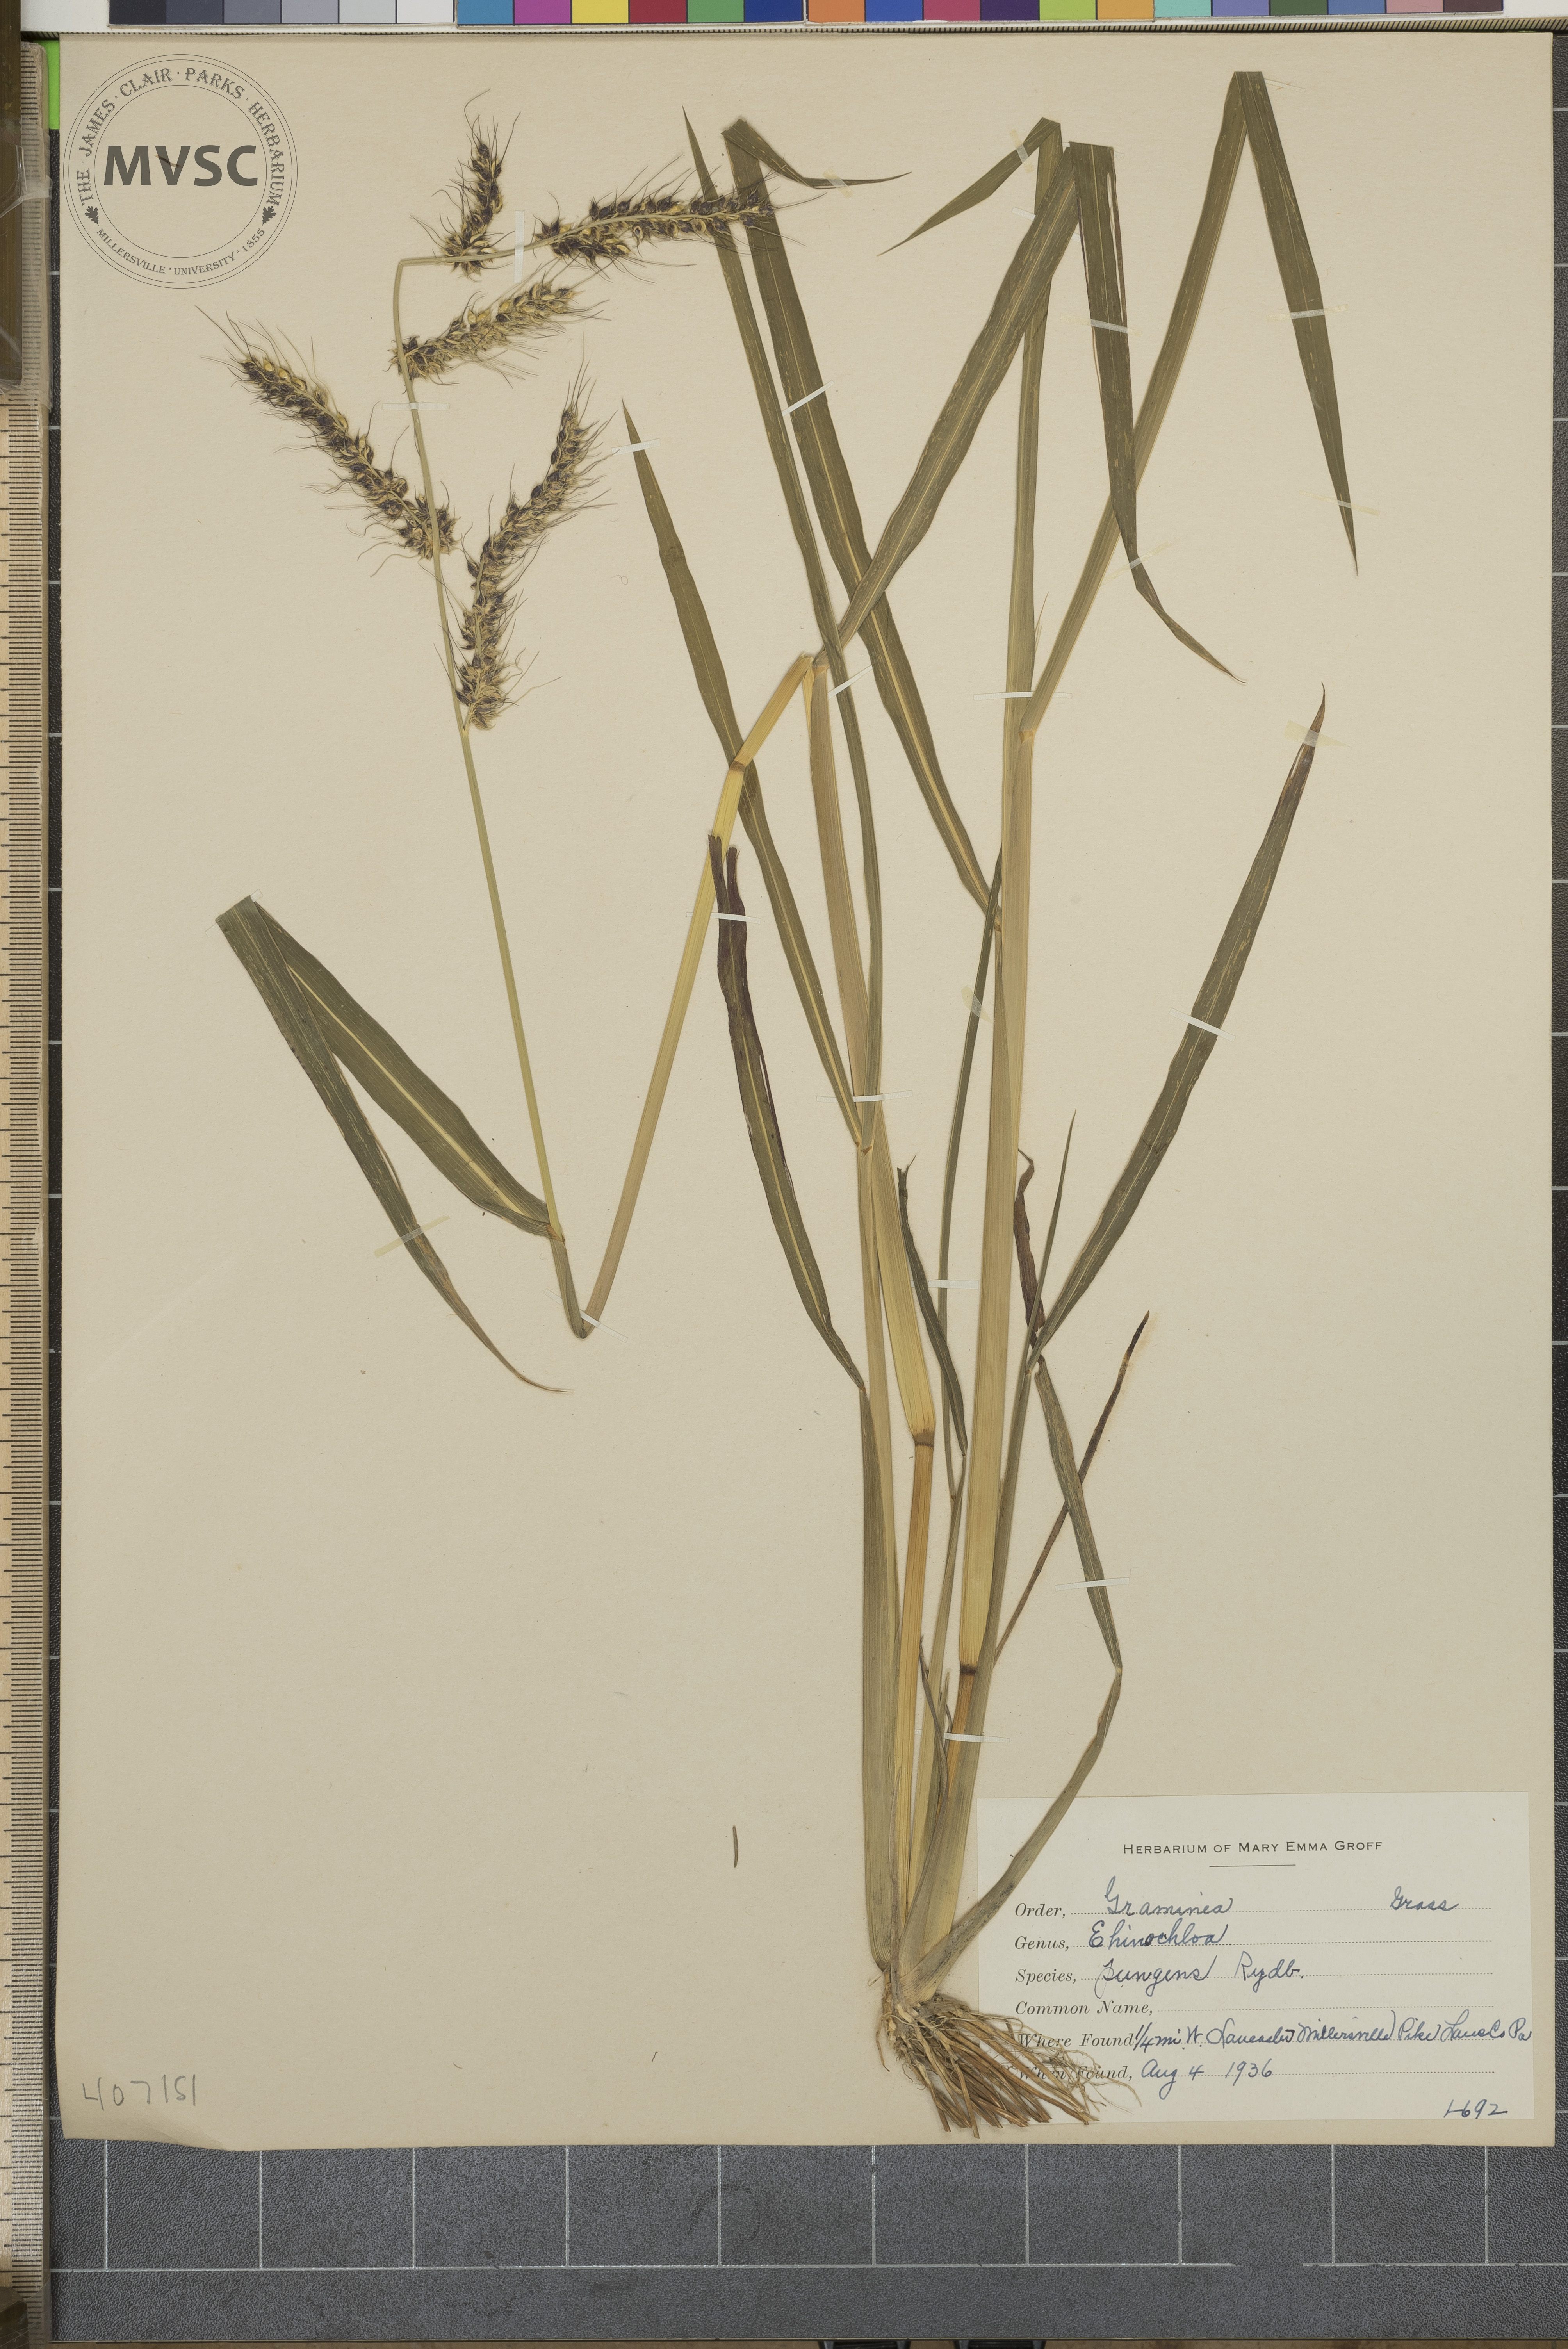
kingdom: Plantae
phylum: Tracheophyta
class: Liliopsida
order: Poales
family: Poaceae
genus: Echinochloa
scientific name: Echinochloa muricata
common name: American barnyard grass
